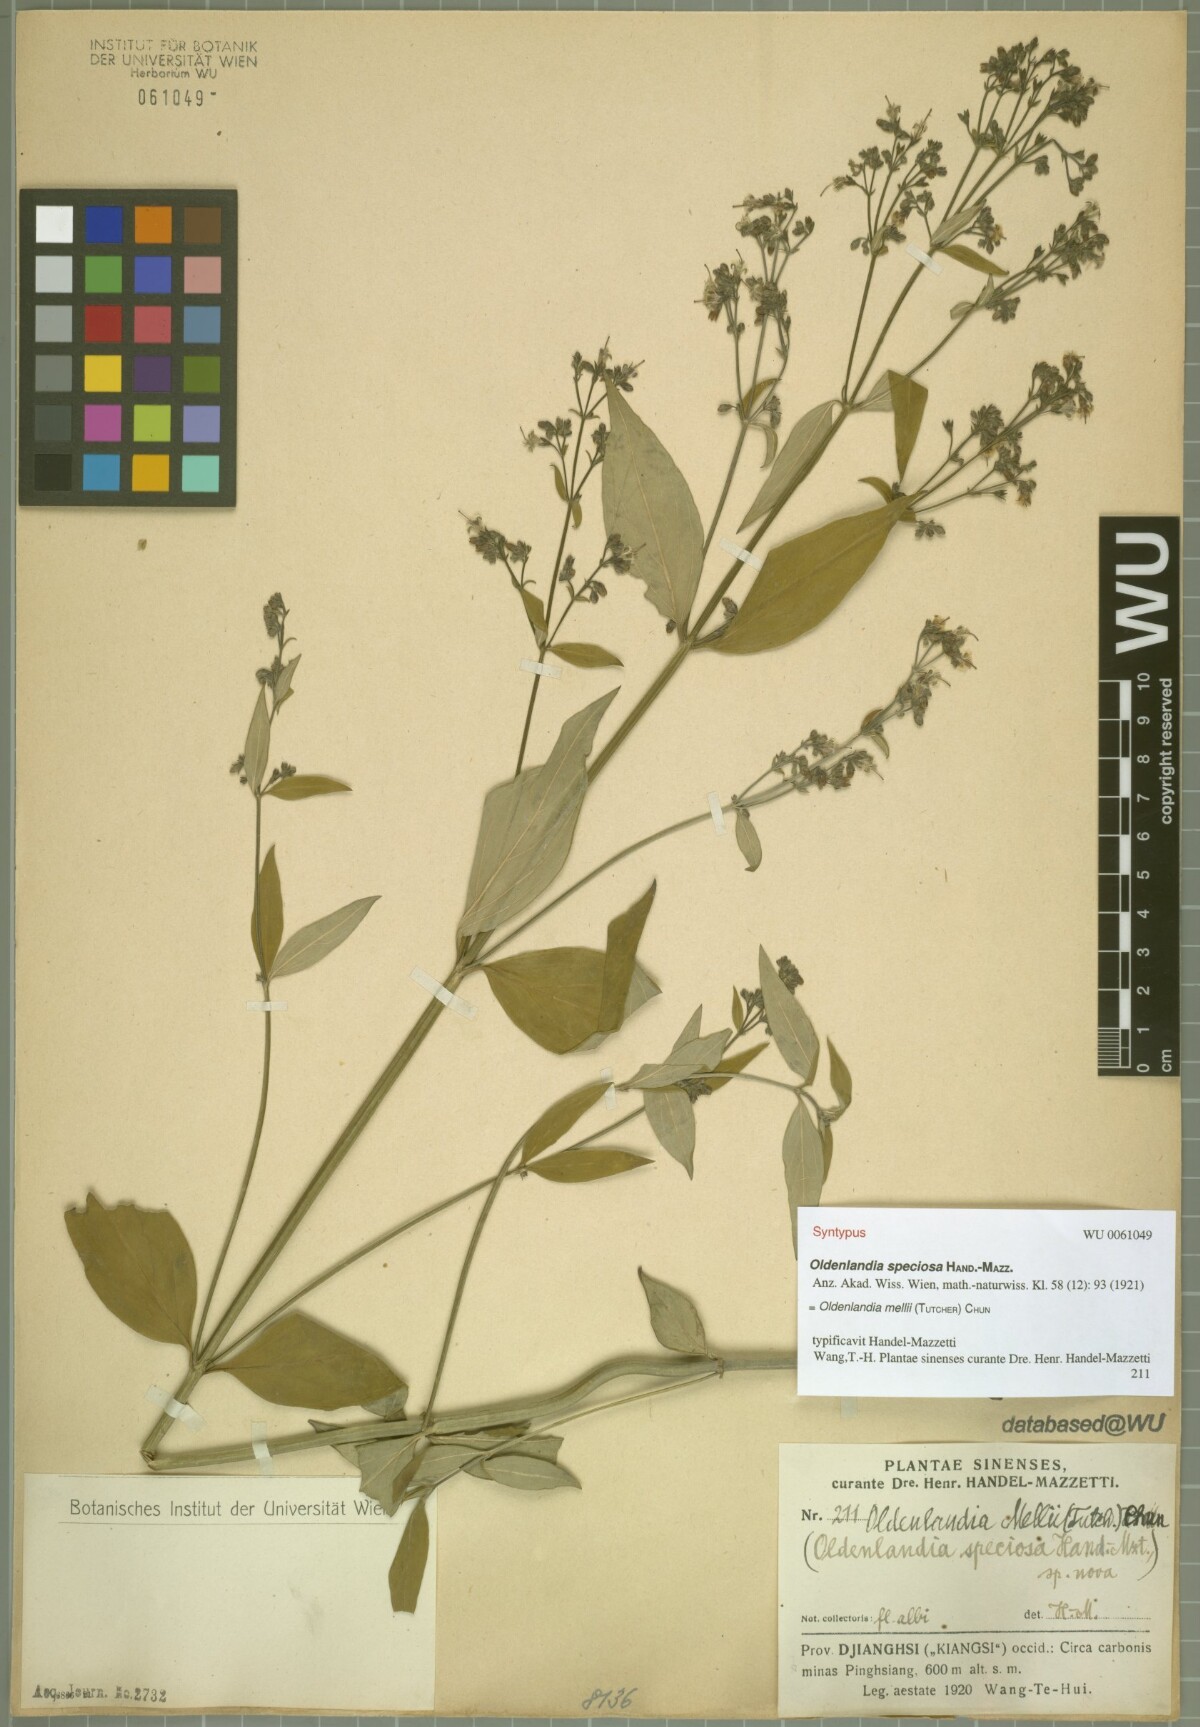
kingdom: Plantae
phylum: Tracheophyta
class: Magnoliopsida
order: Gentianales
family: Rubiaceae
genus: Hedyotis
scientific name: Hedyotis matthewii
